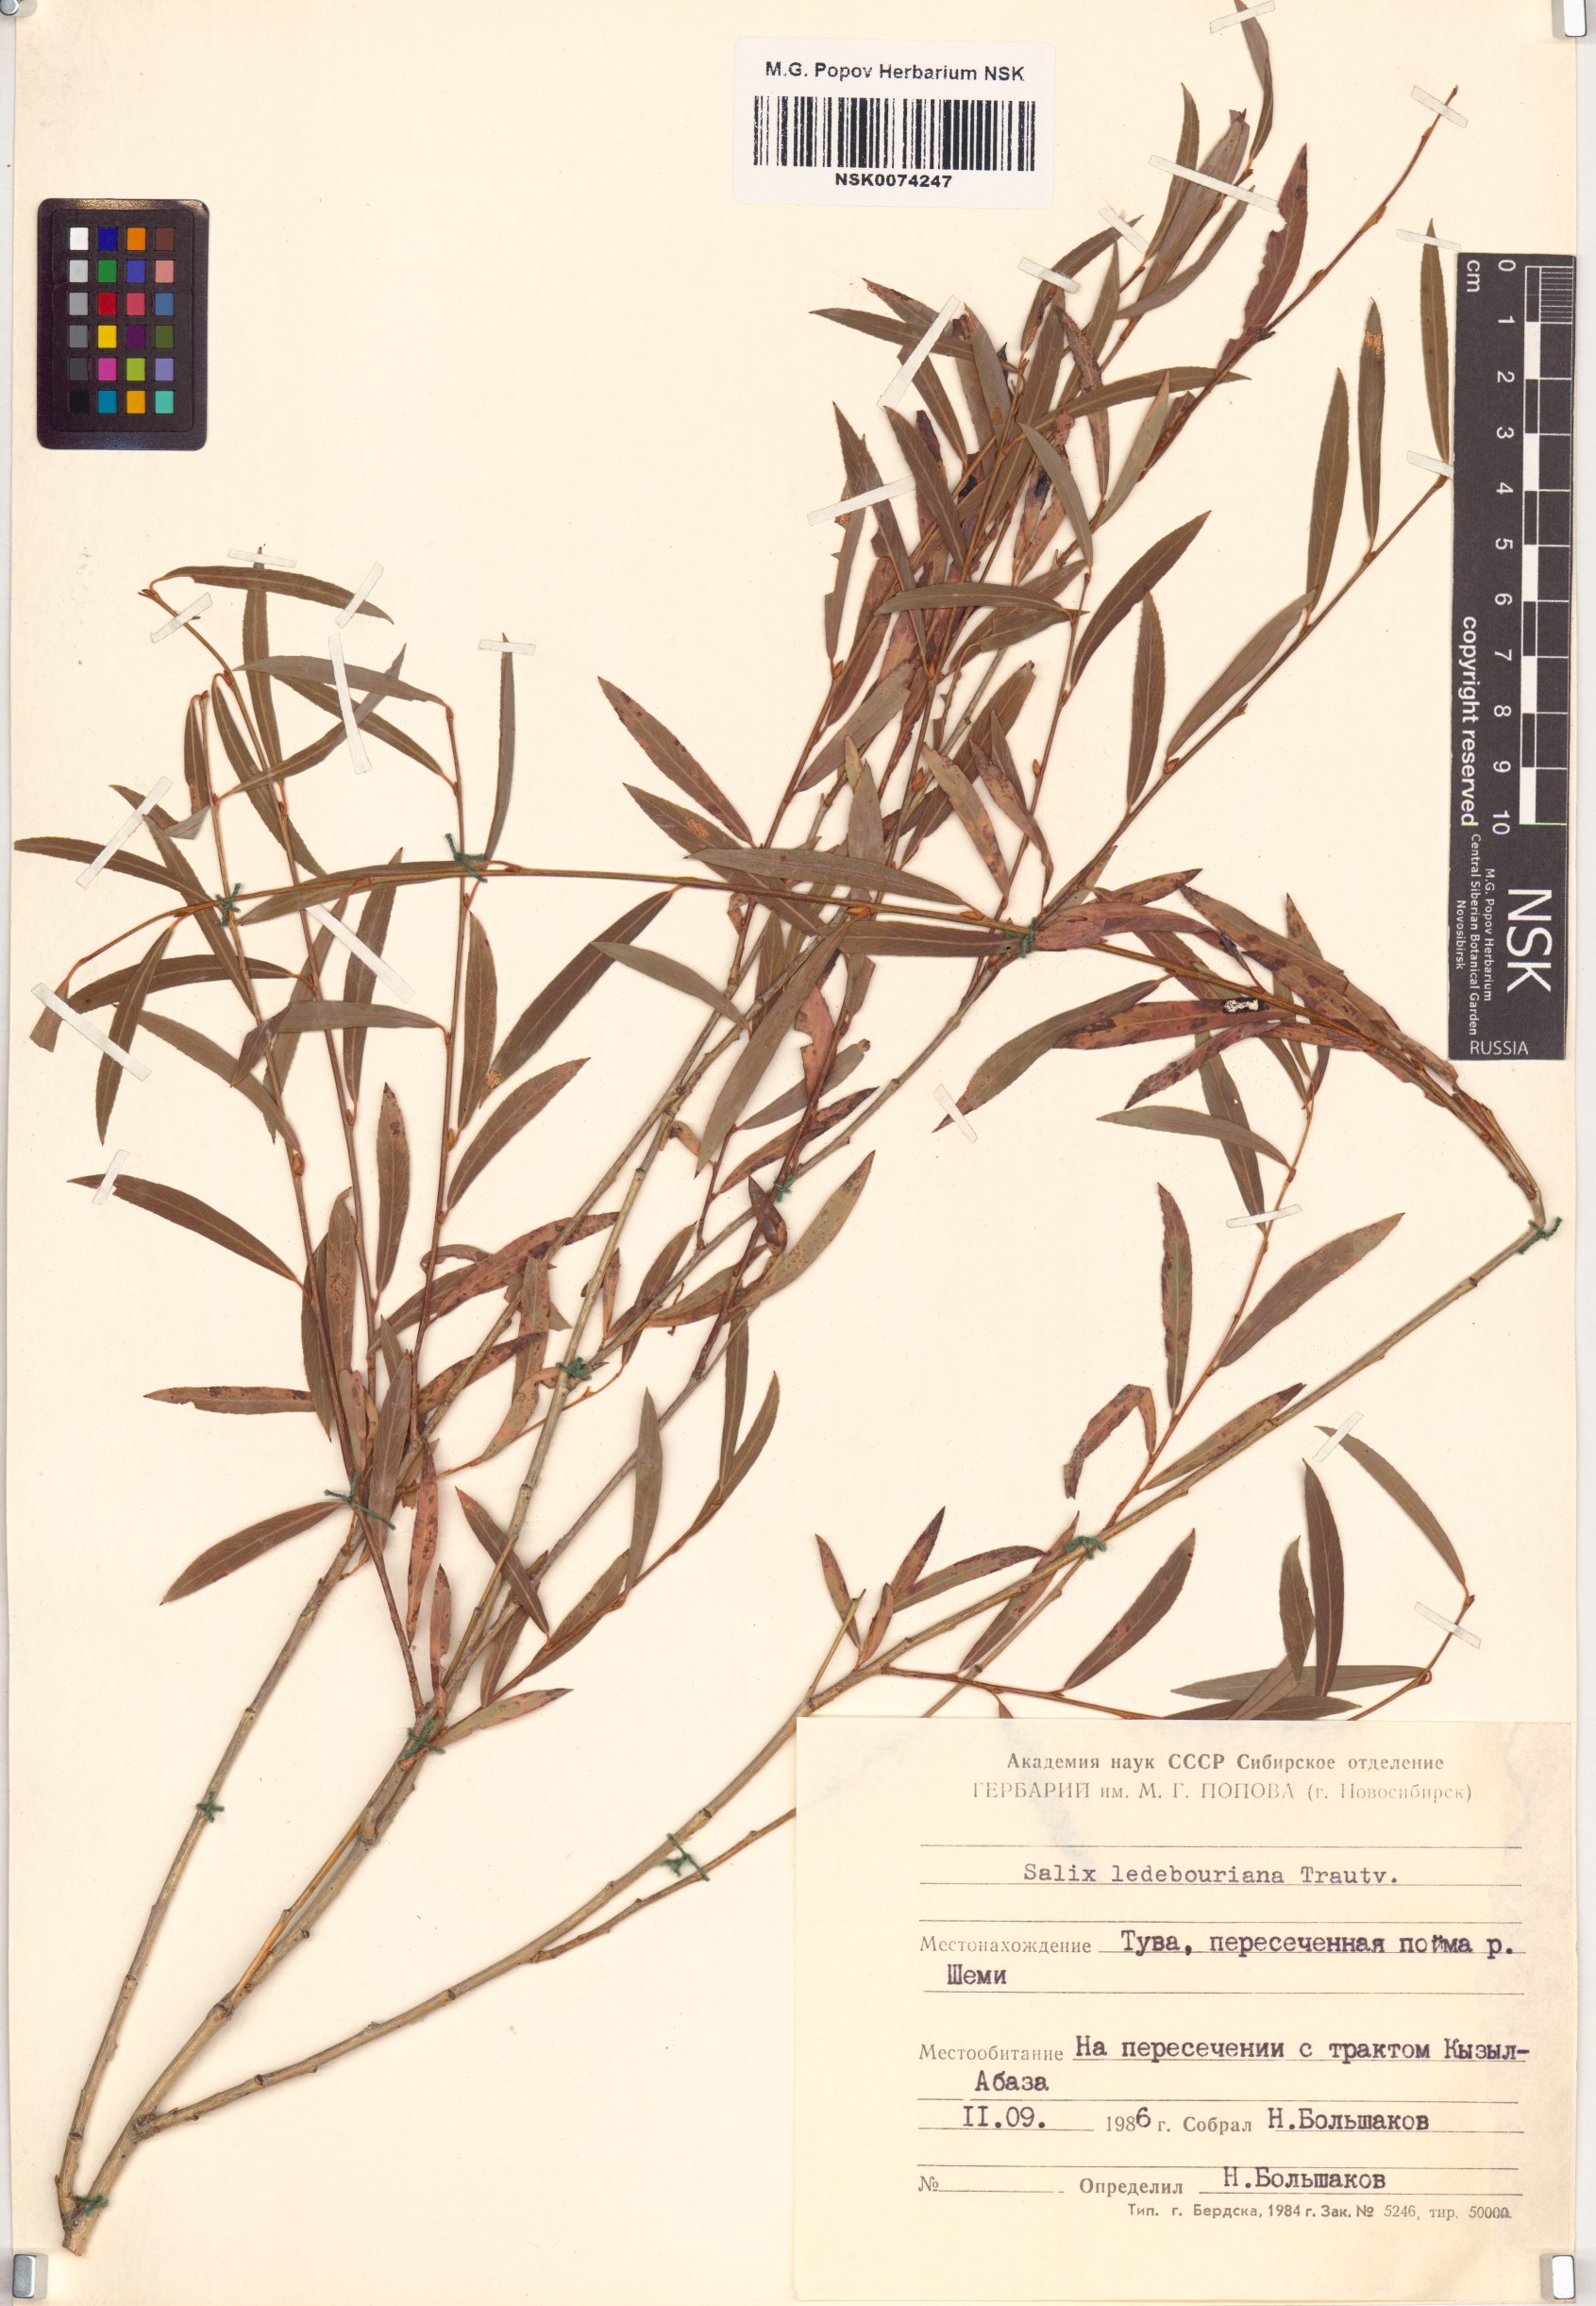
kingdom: Plantae
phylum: Tracheophyta
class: Magnoliopsida
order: Malpighiales
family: Salicaceae
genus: Salix
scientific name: Salix ledebouriana
